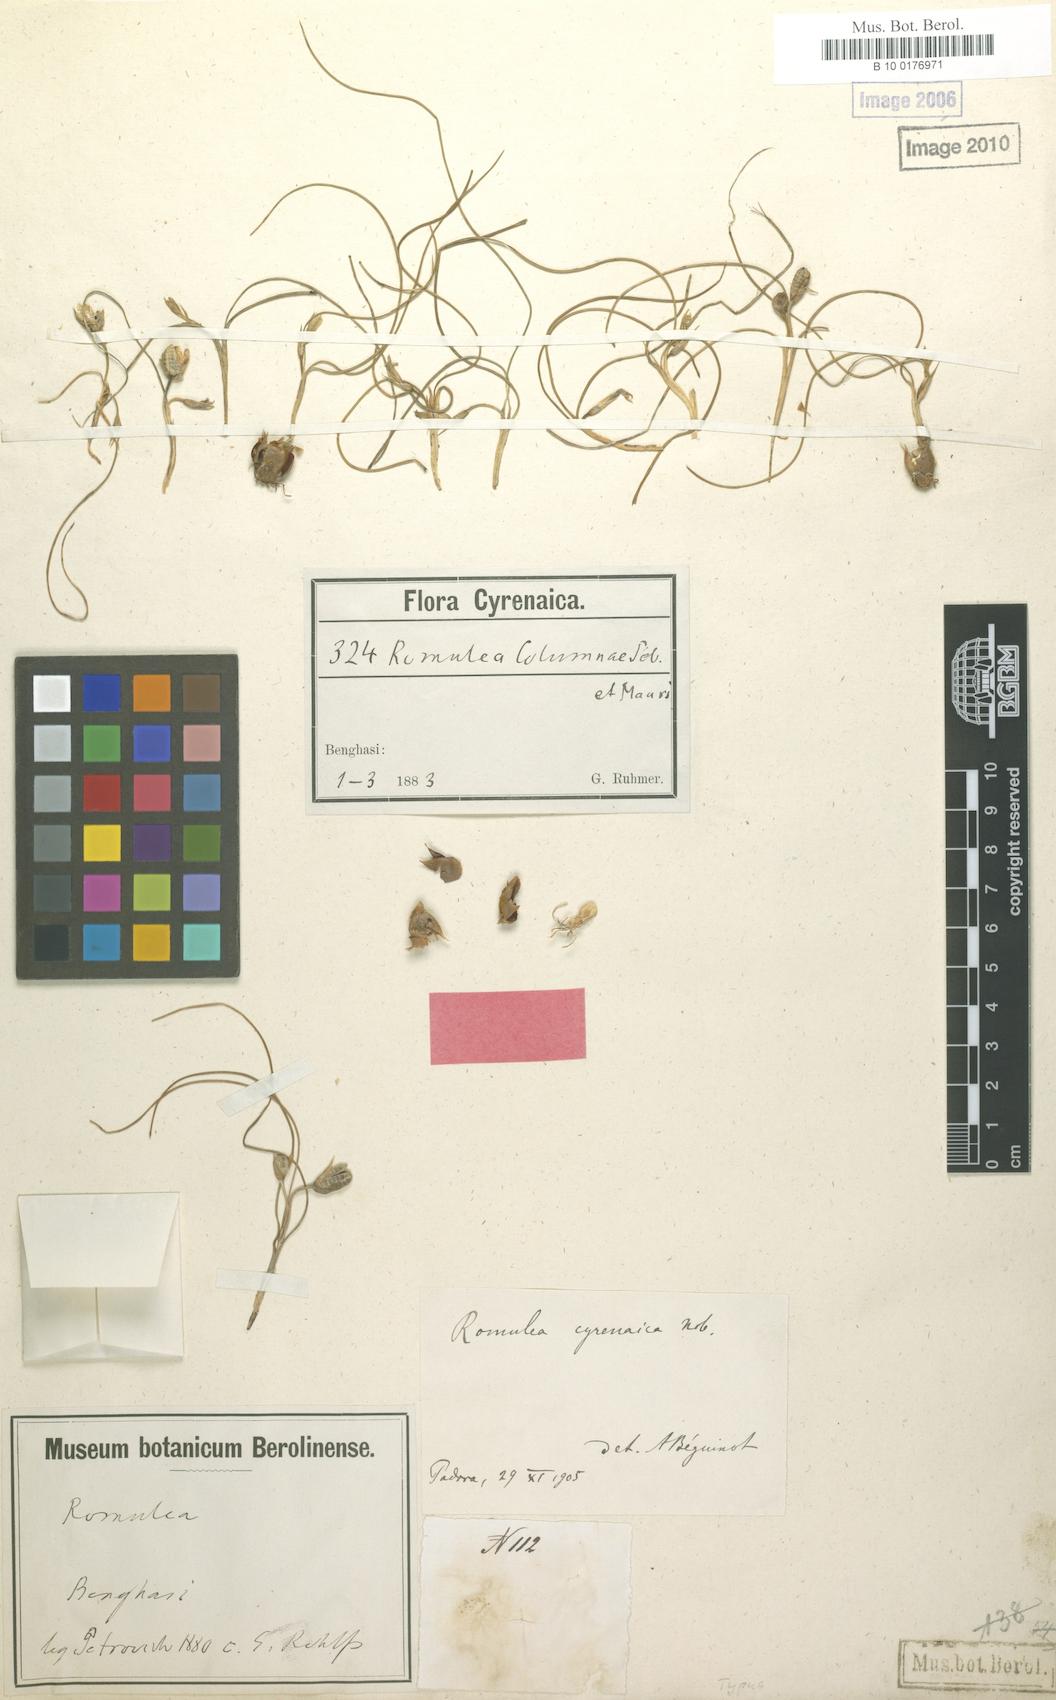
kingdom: Plantae
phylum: Tracheophyta
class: Liliopsida
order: Asparagales
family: Iridaceae
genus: Romulea
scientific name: Romulea cyrenaica
